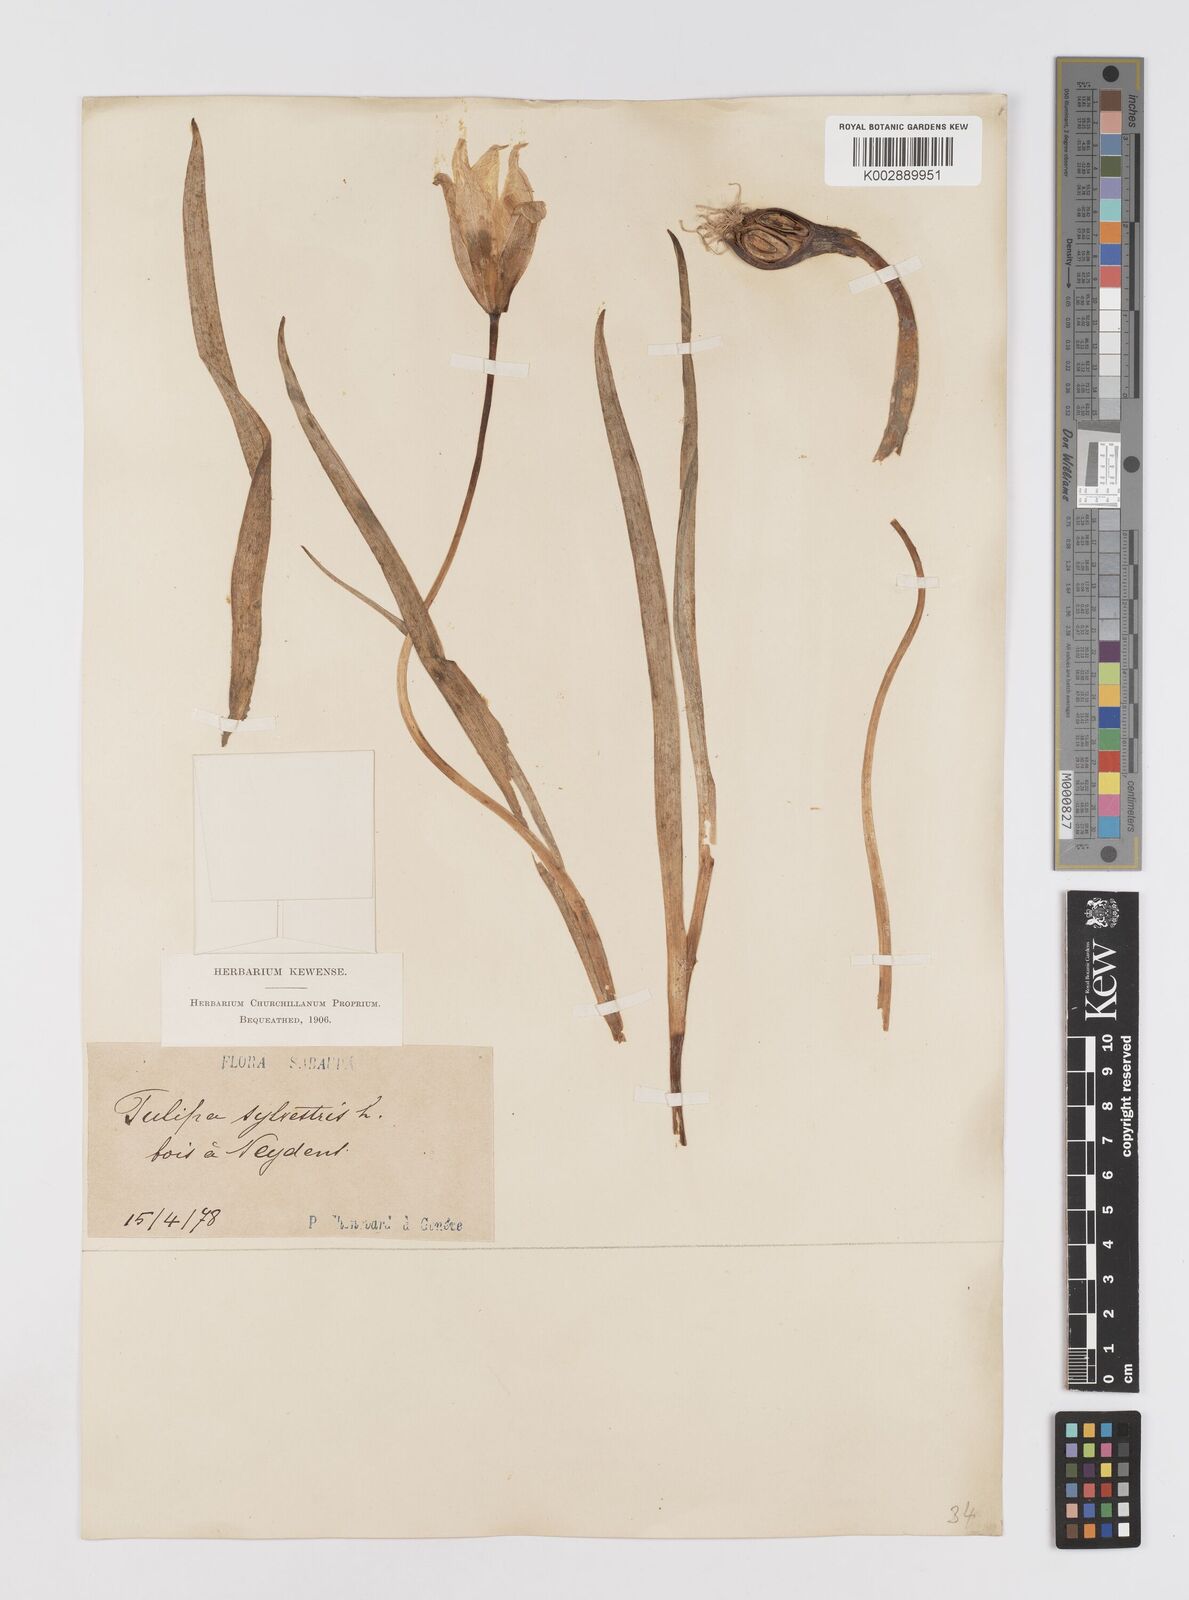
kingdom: Plantae
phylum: Tracheophyta
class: Liliopsida
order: Liliales
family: Liliaceae
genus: Tulipa
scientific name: Tulipa sylvestris
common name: Wild tulip
